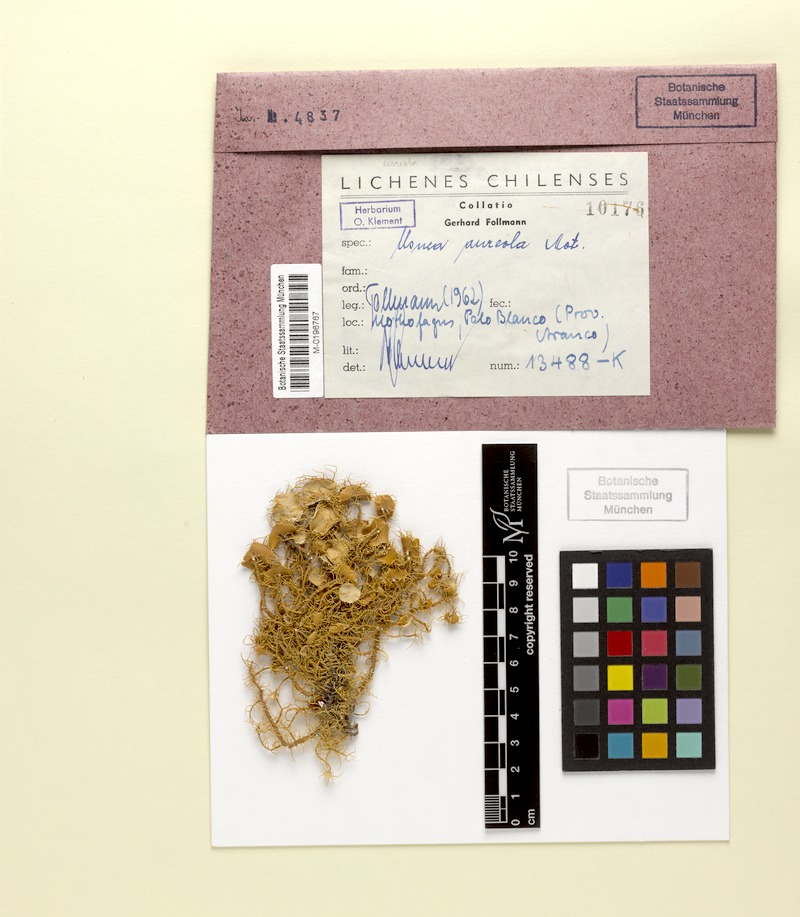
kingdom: Fungi
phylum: Ascomycota
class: Lecanoromycetes
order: Lecanorales
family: Parmeliaceae
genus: Usnea
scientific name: Usnea aureola
